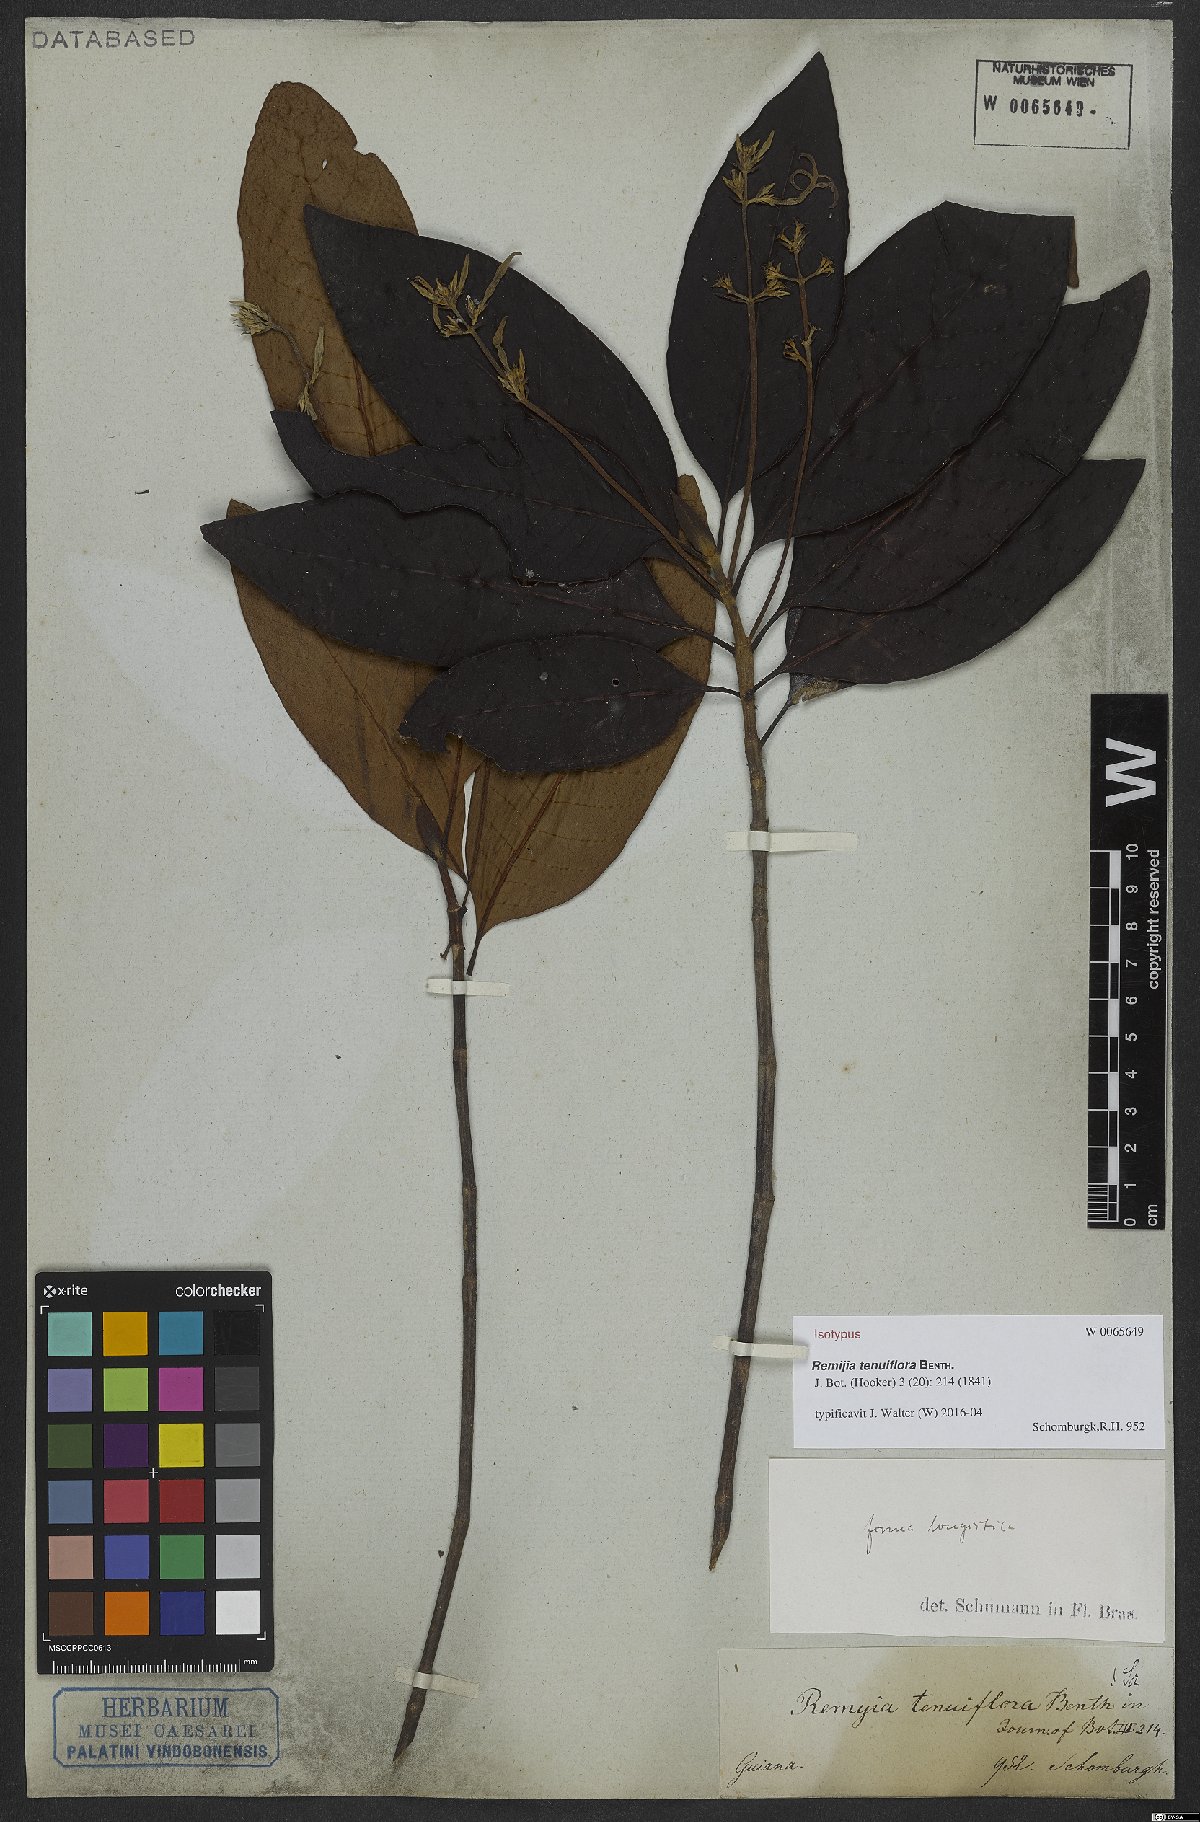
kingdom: Plantae
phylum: Tracheophyta
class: Magnoliopsida
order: Gentianales
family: Rubiaceae
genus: Remijia
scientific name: Remijia tenuiflora
